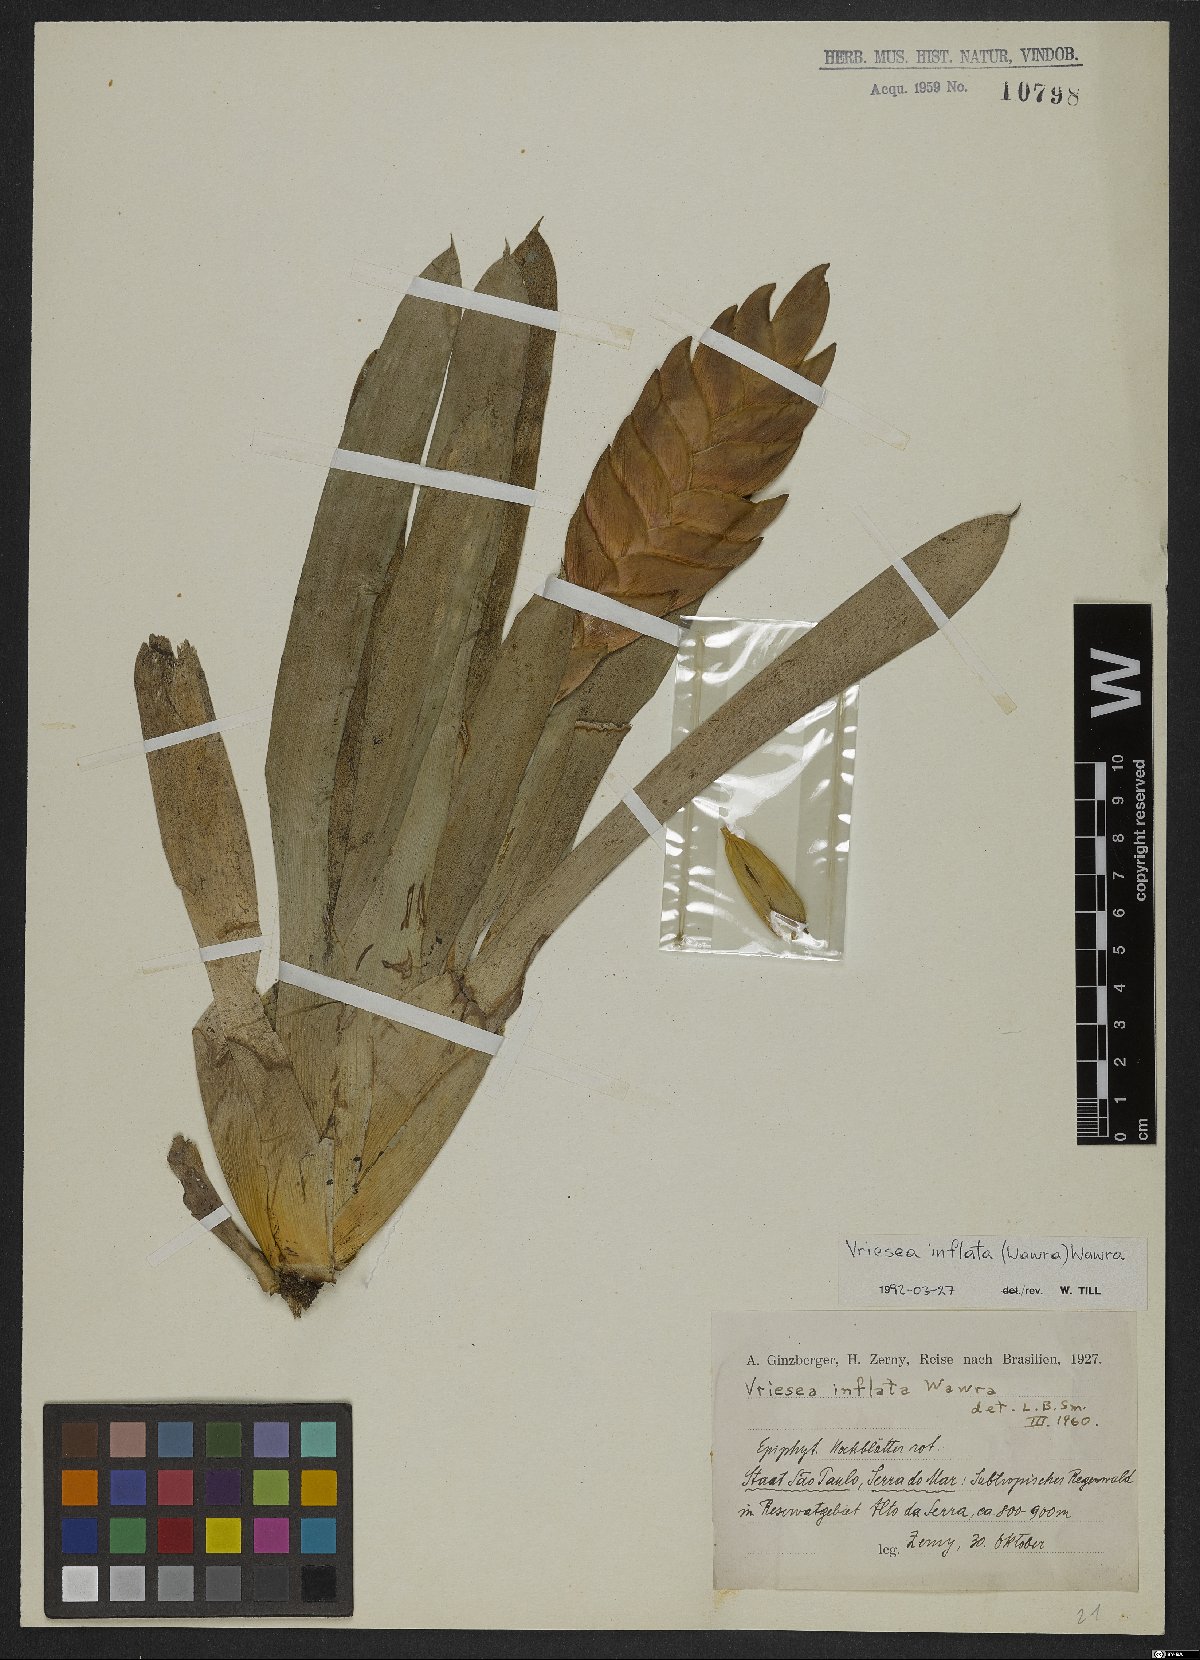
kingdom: Plantae
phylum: Tracheophyta
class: Liliopsida
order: Poales
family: Bromeliaceae
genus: Vriesea
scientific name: Vriesea inflata
